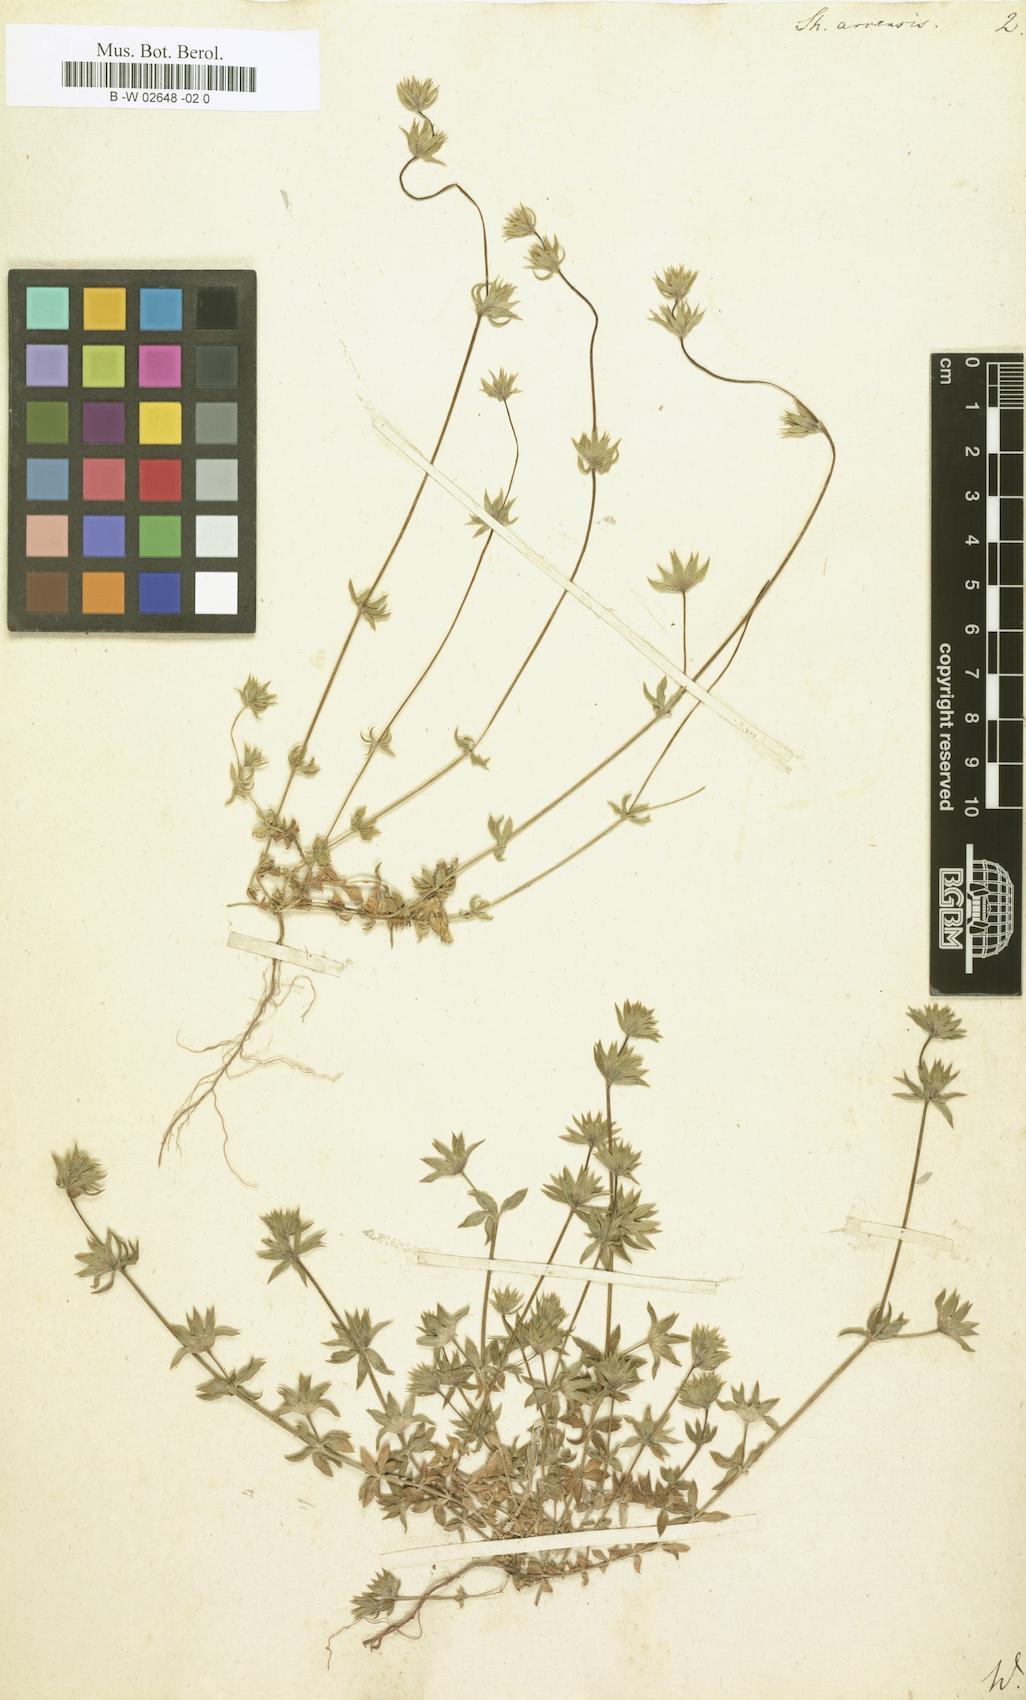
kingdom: Plantae
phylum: Tracheophyta
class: Magnoliopsida
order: Gentianales
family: Rubiaceae
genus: Sherardia
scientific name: Sherardia arvensis
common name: Field madder
